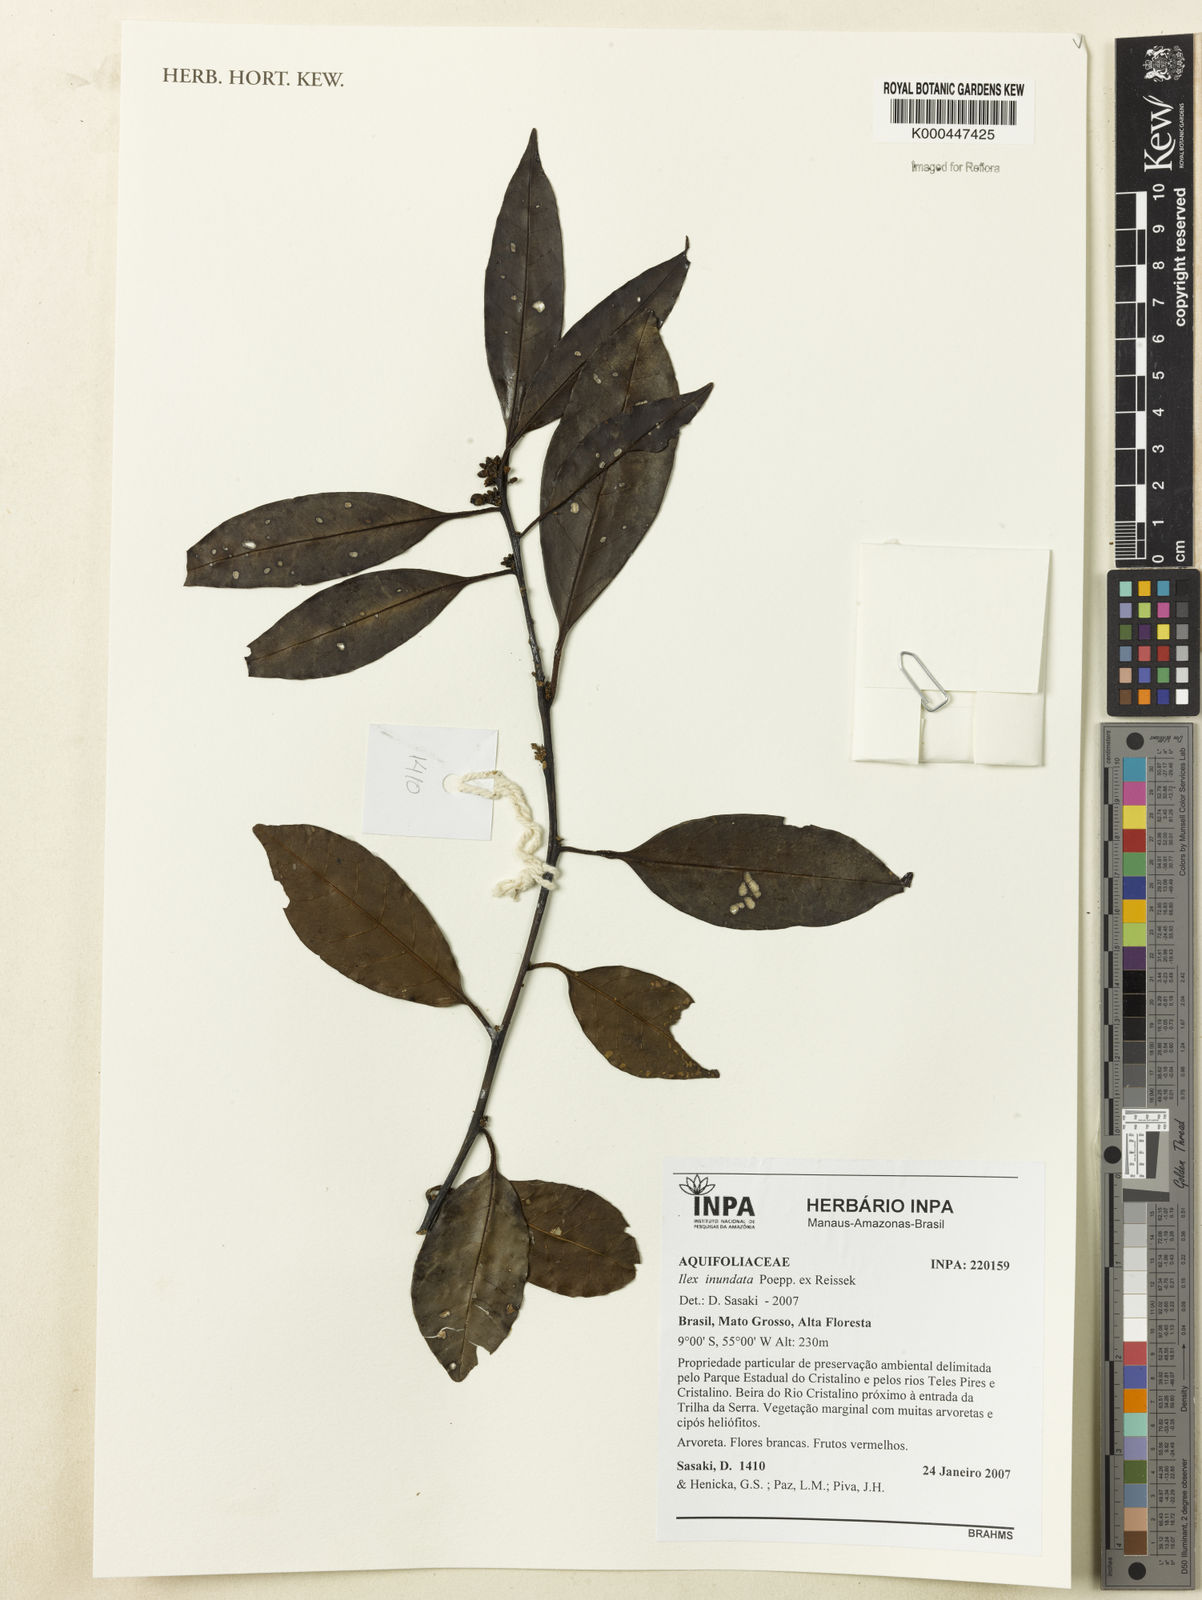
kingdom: Plantae
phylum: Tracheophyta
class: Magnoliopsida
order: Aquifoliales
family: Aquifoliaceae
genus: Ilex
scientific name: Ilex inundata
